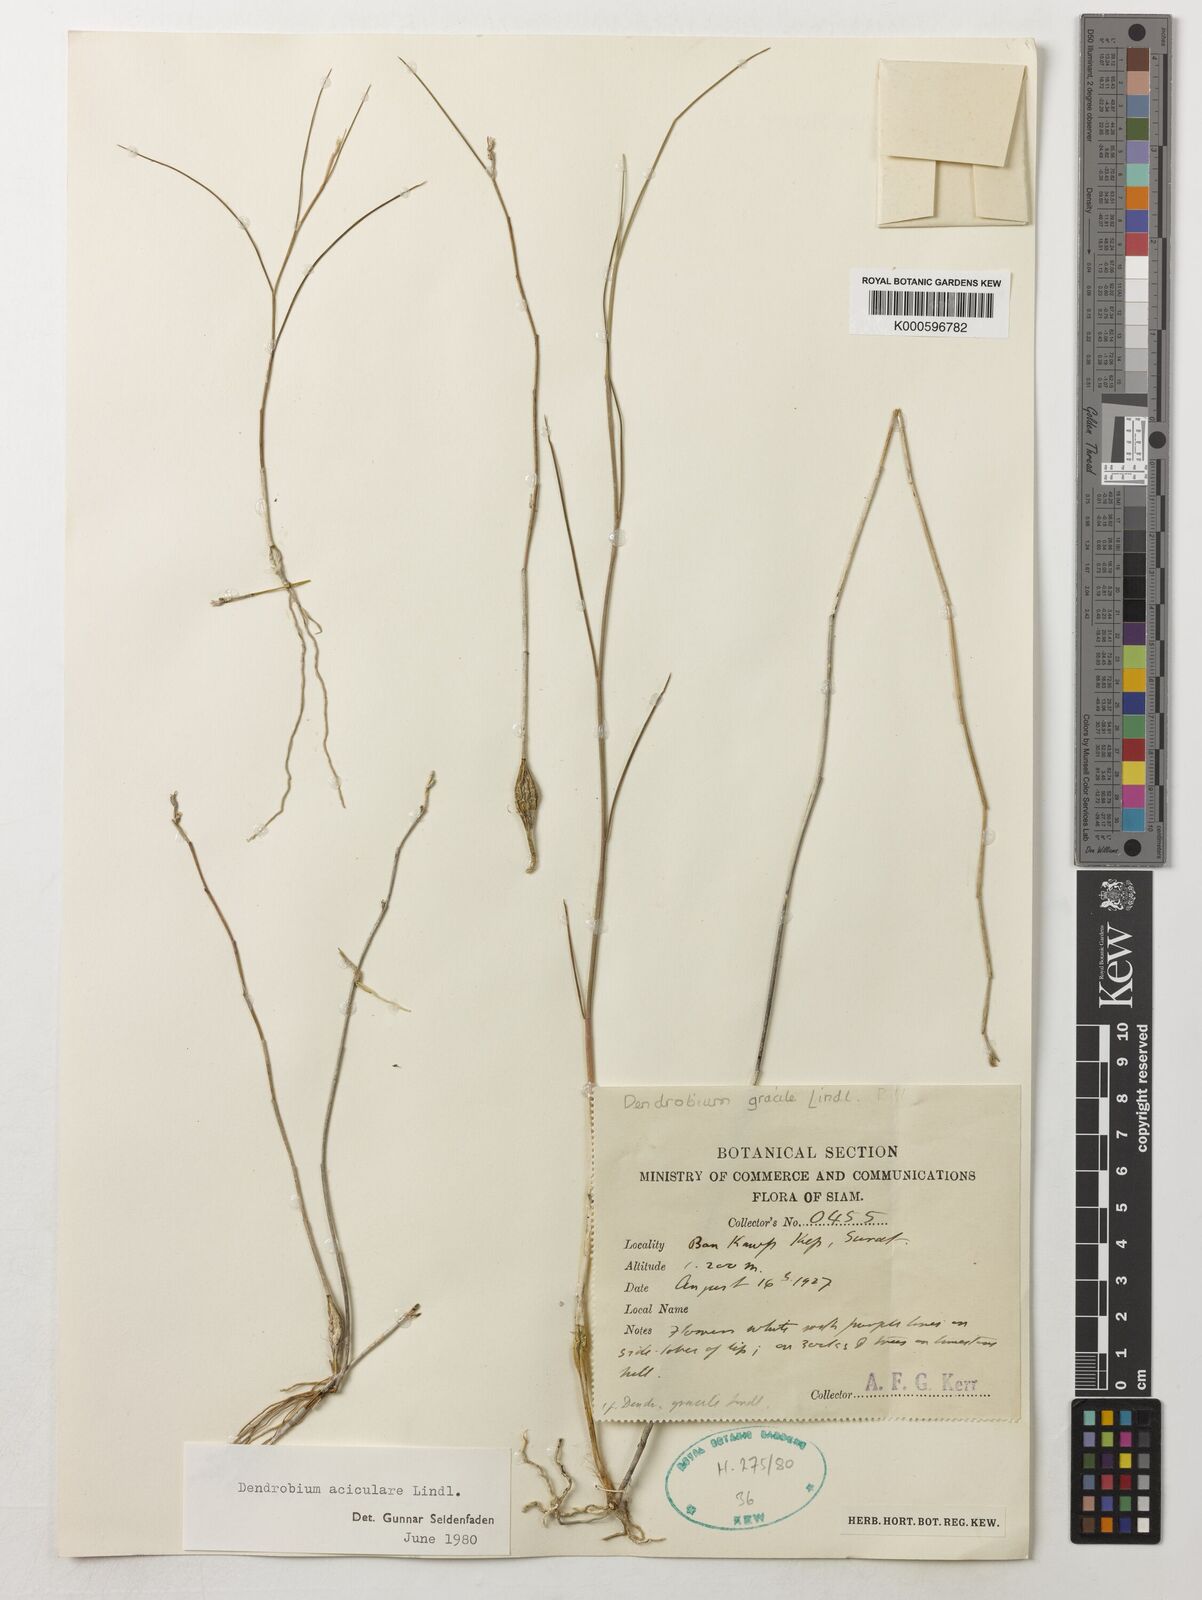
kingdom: Plantae
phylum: Tracheophyta
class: Liliopsida
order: Asparagales
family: Orchidaceae
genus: Dendrobium
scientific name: Dendrobium aciculare
